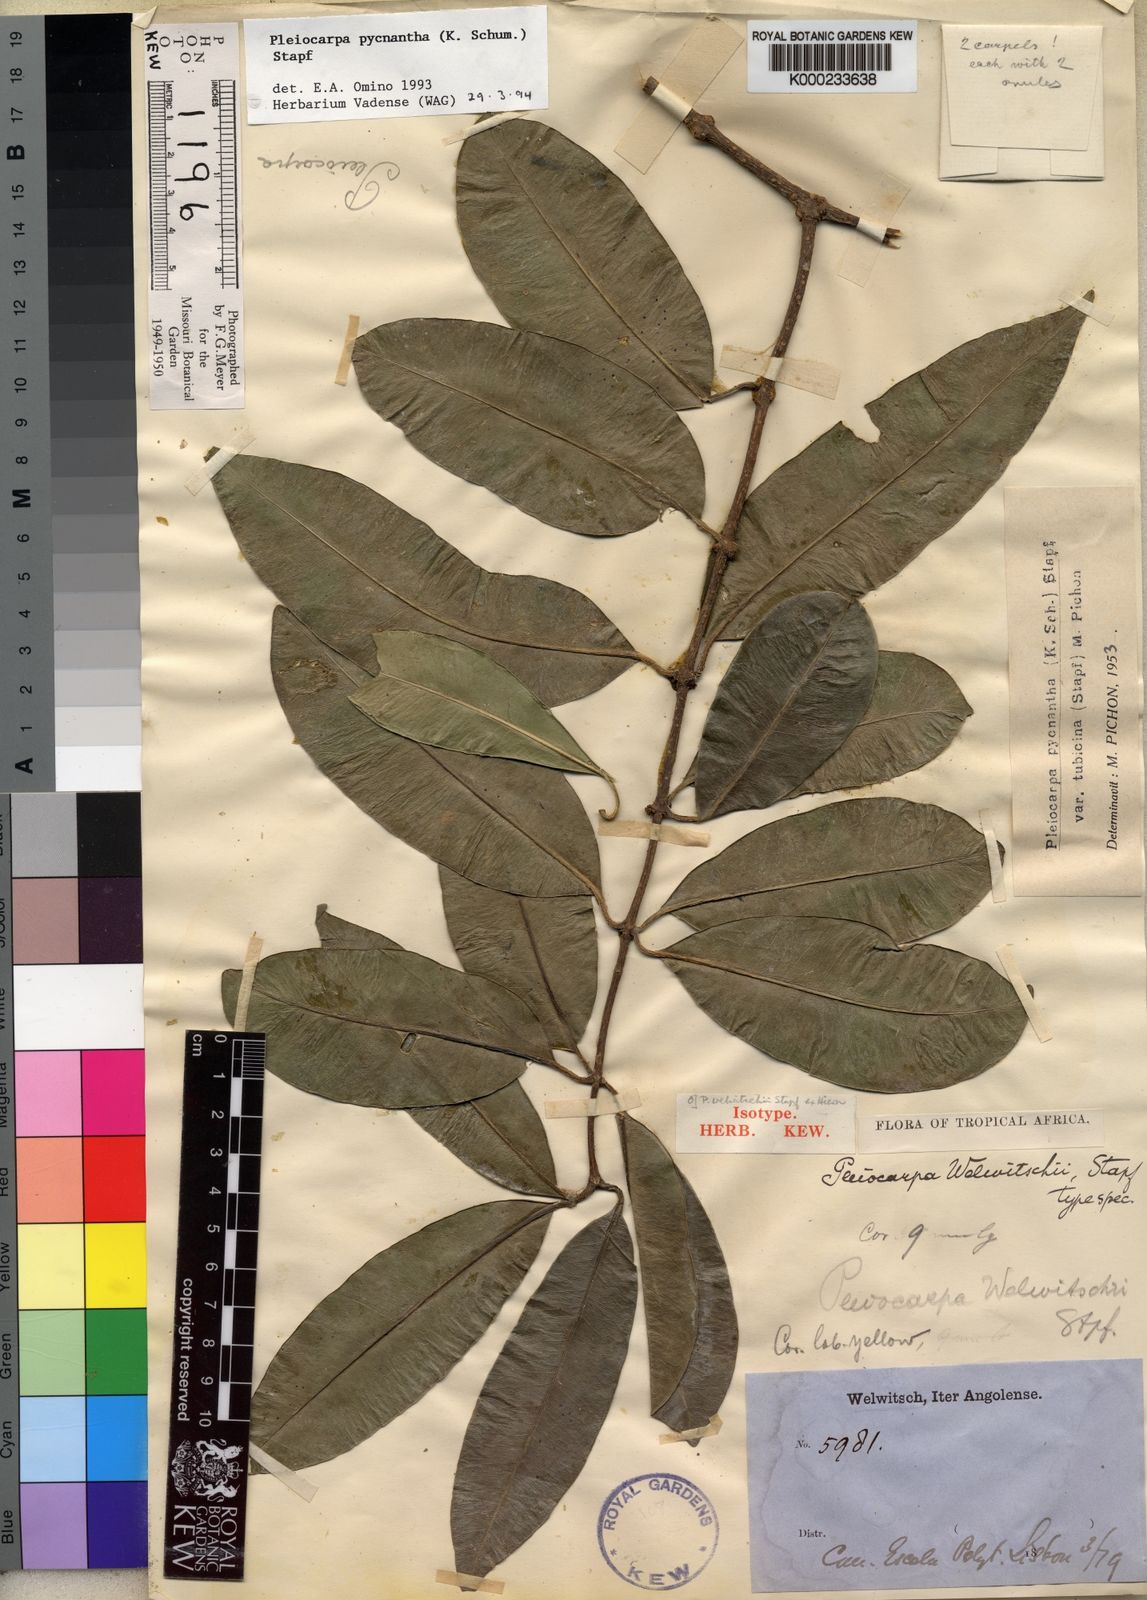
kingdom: Plantae
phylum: Tracheophyta
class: Magnoliopsida
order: Gentianales
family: Apocynaceae
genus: Pleiocarpa
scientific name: Pleiocarpa pycnantha
